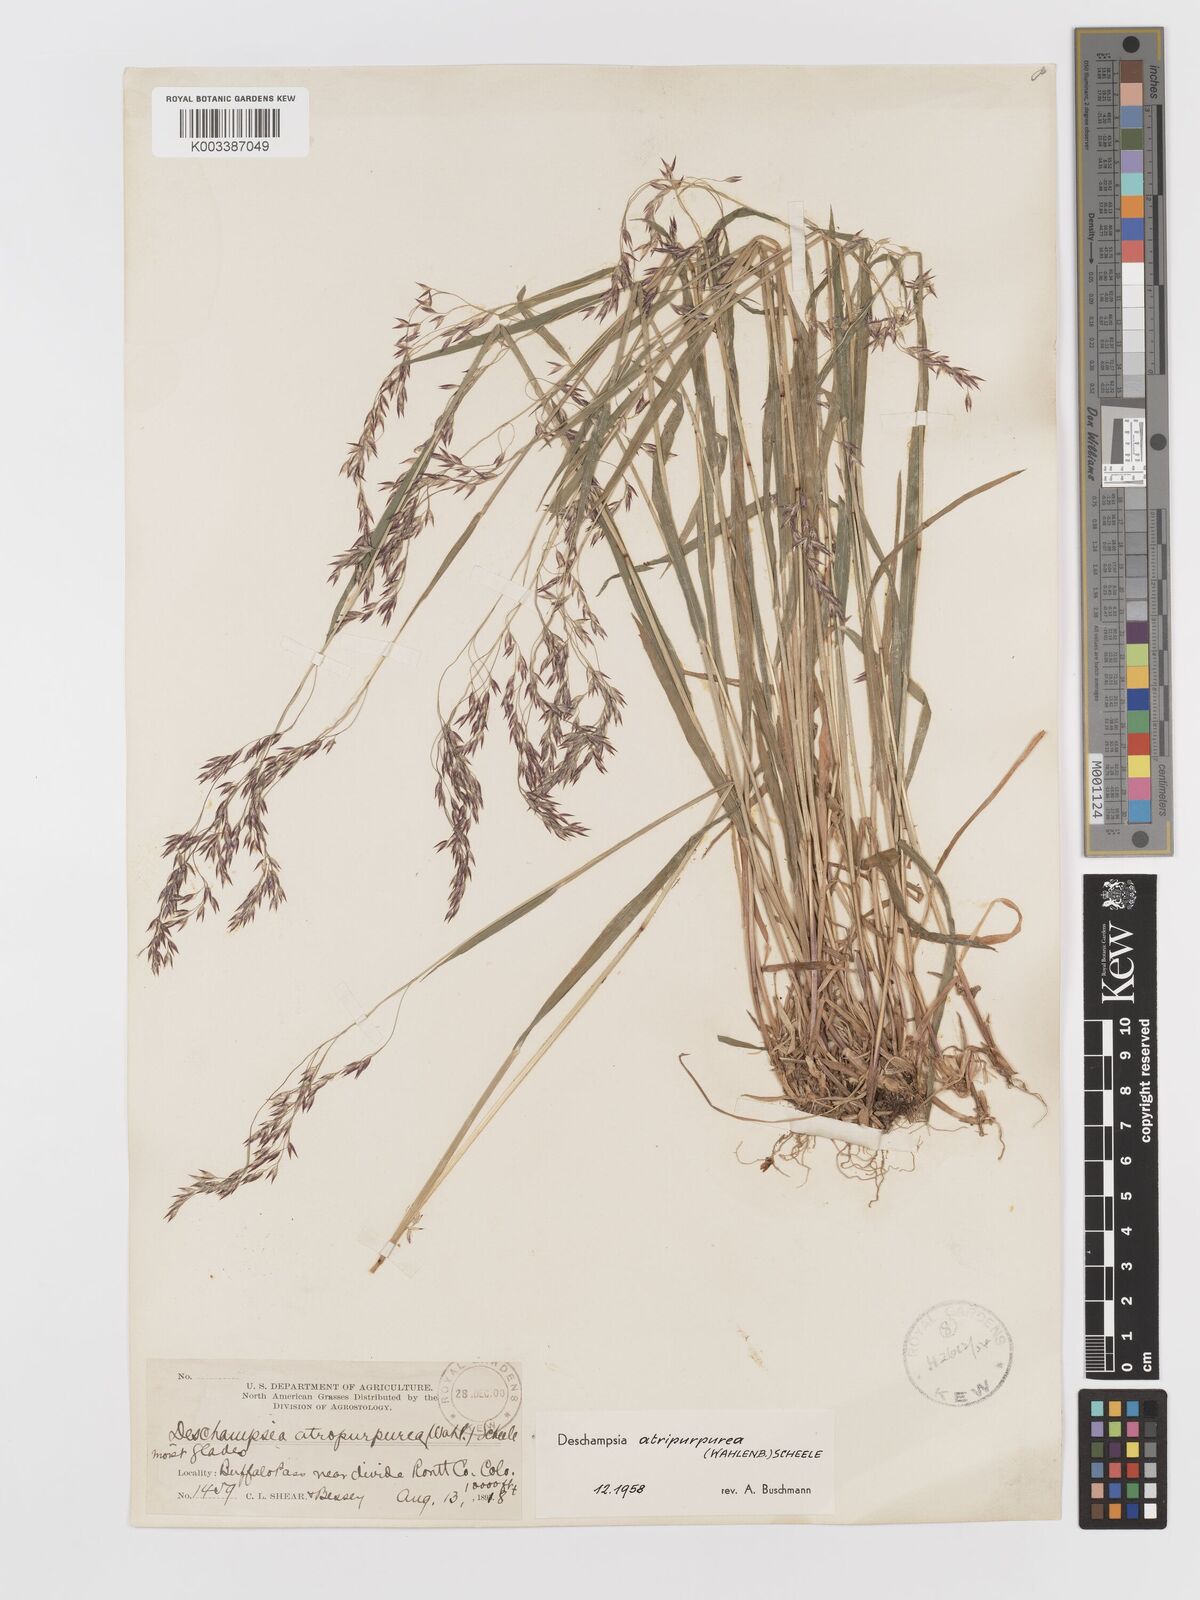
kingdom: Plantae
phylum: Tracheophyta
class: Liliopsida
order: Poales
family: Poaceae
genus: Vahlodea
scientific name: Vahlodea atropurpurea
